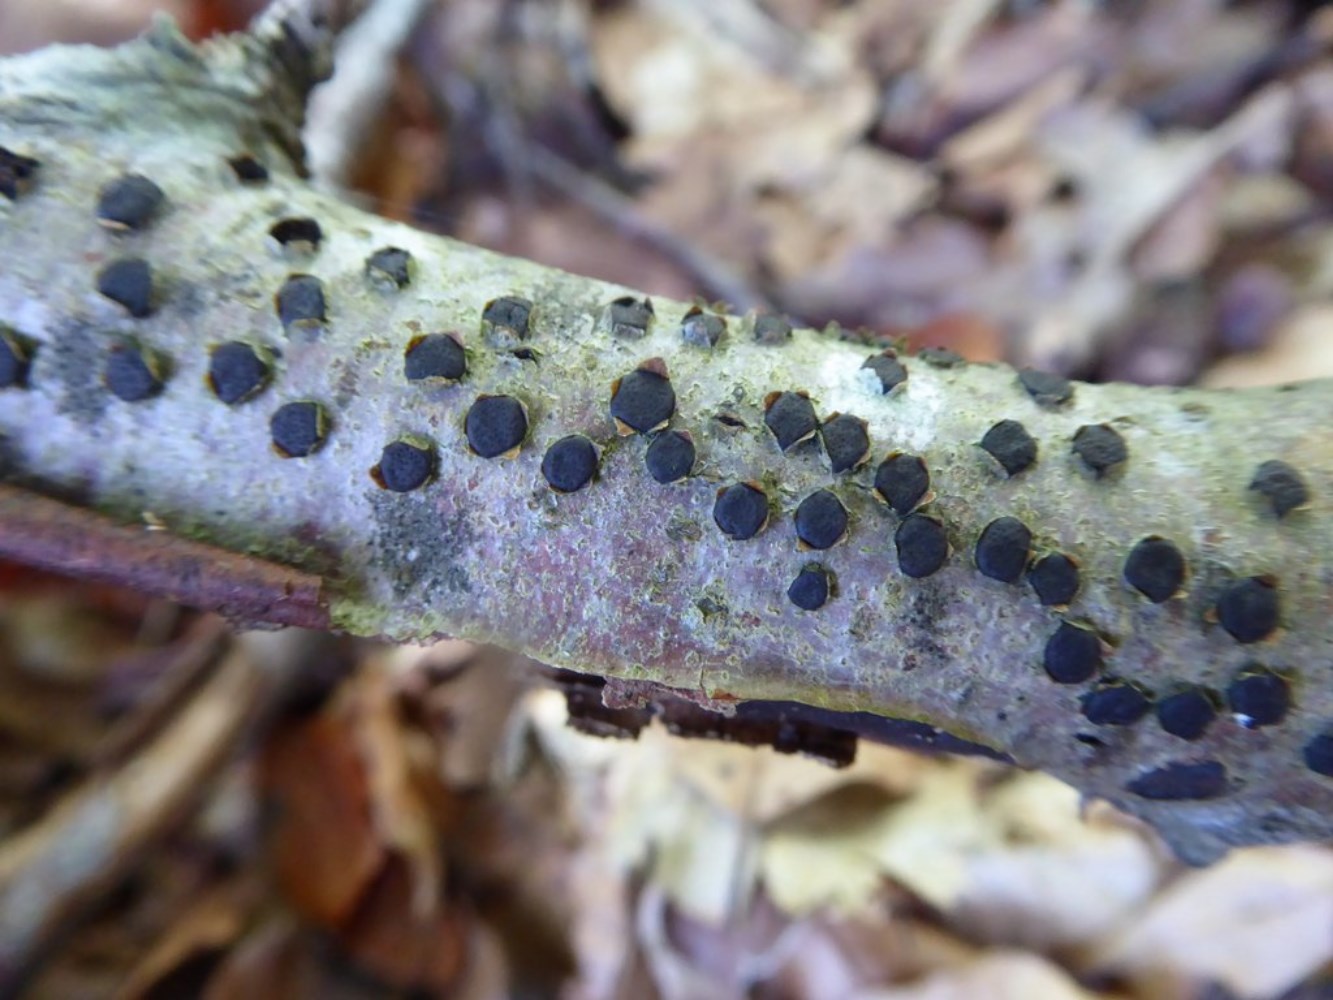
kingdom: Fungi
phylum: Ascomycota
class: Sordariomycetes
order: Xylariales
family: Diatrypaceae
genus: Diatrype
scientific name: Diatrype disciformis
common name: kant-kulskorpe
